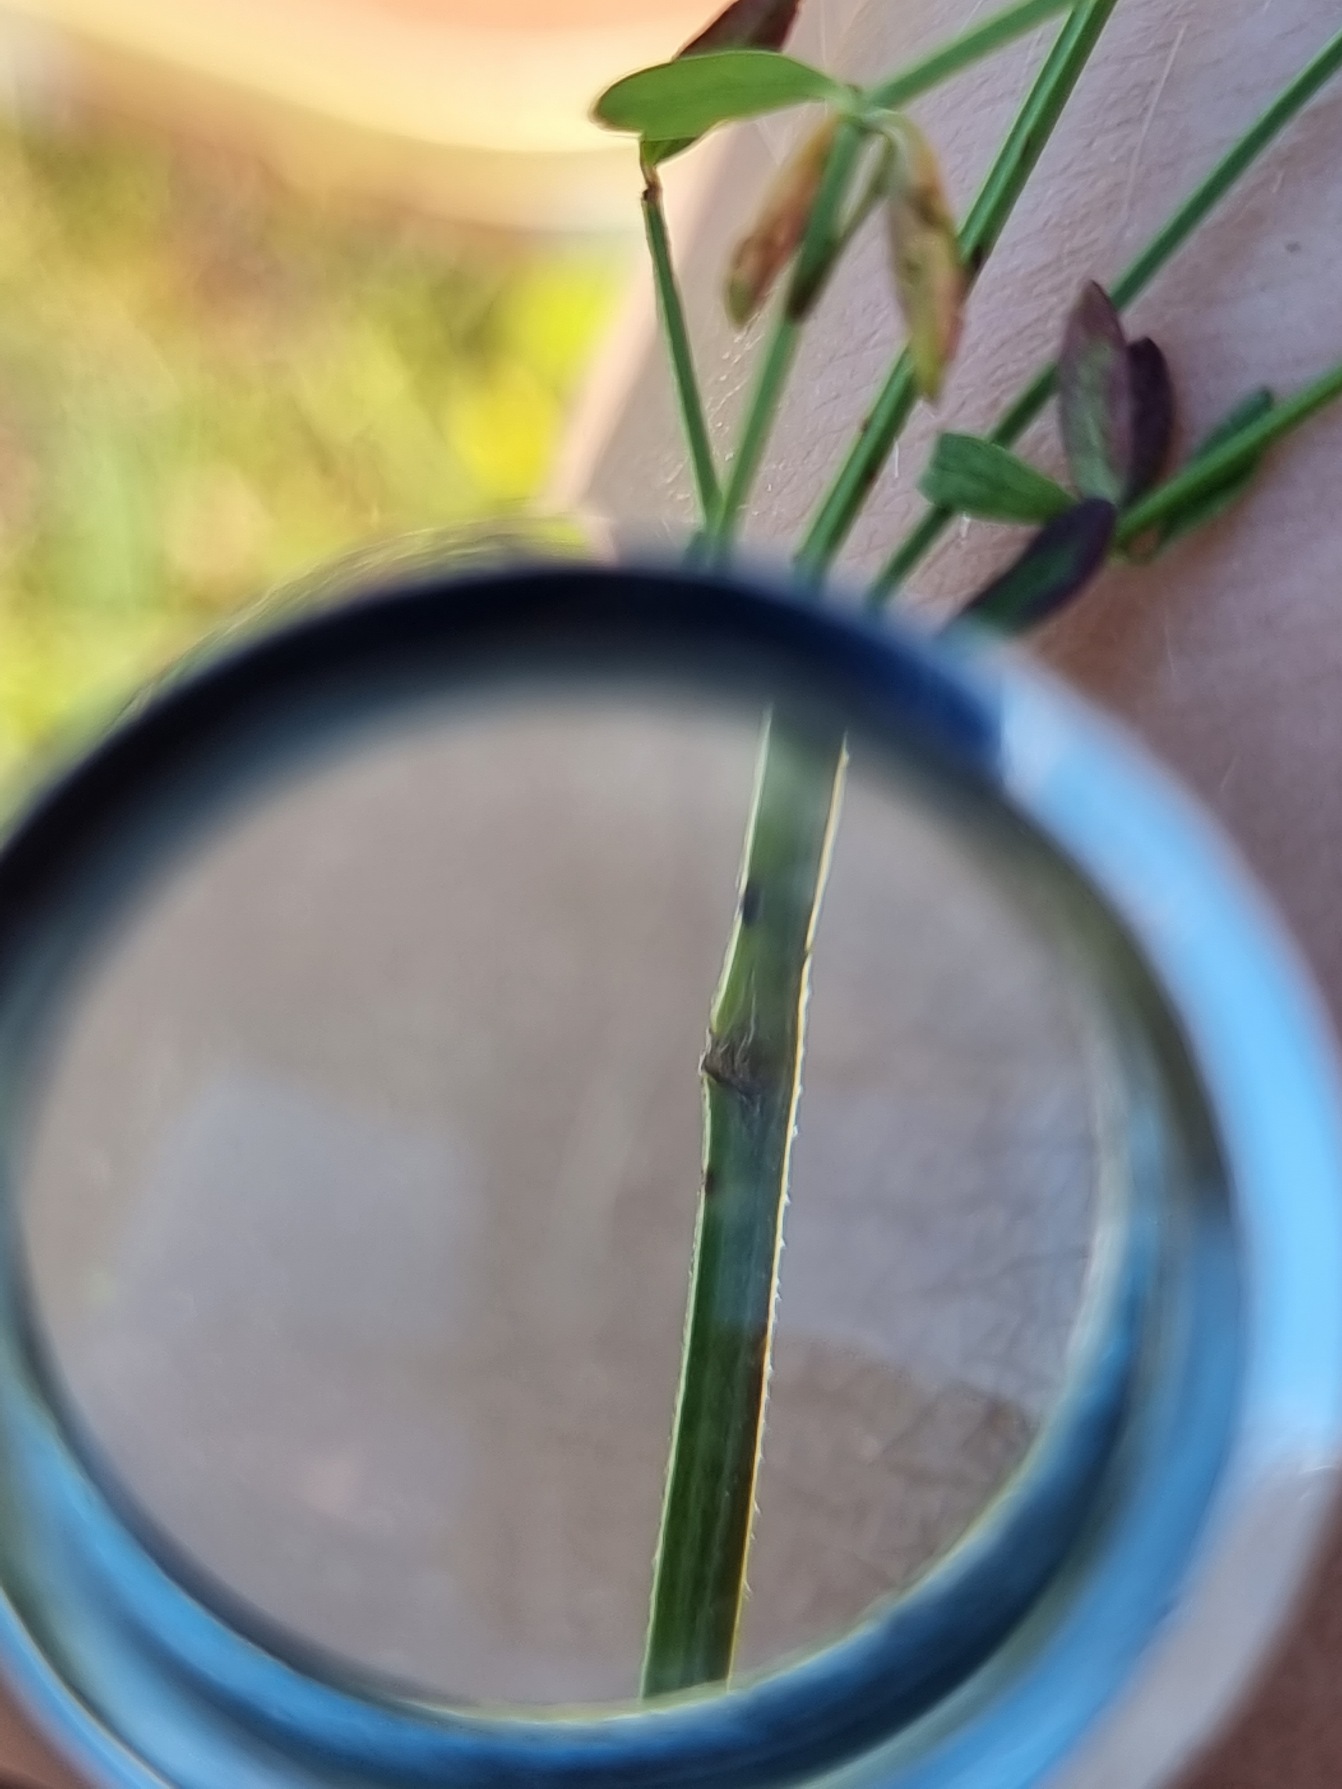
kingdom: Plantae
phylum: Tracheophyta
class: Magnoliopsida
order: Gentianales
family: Rubiaceae
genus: Galium
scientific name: Galium palustre
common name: Kær-snerre
